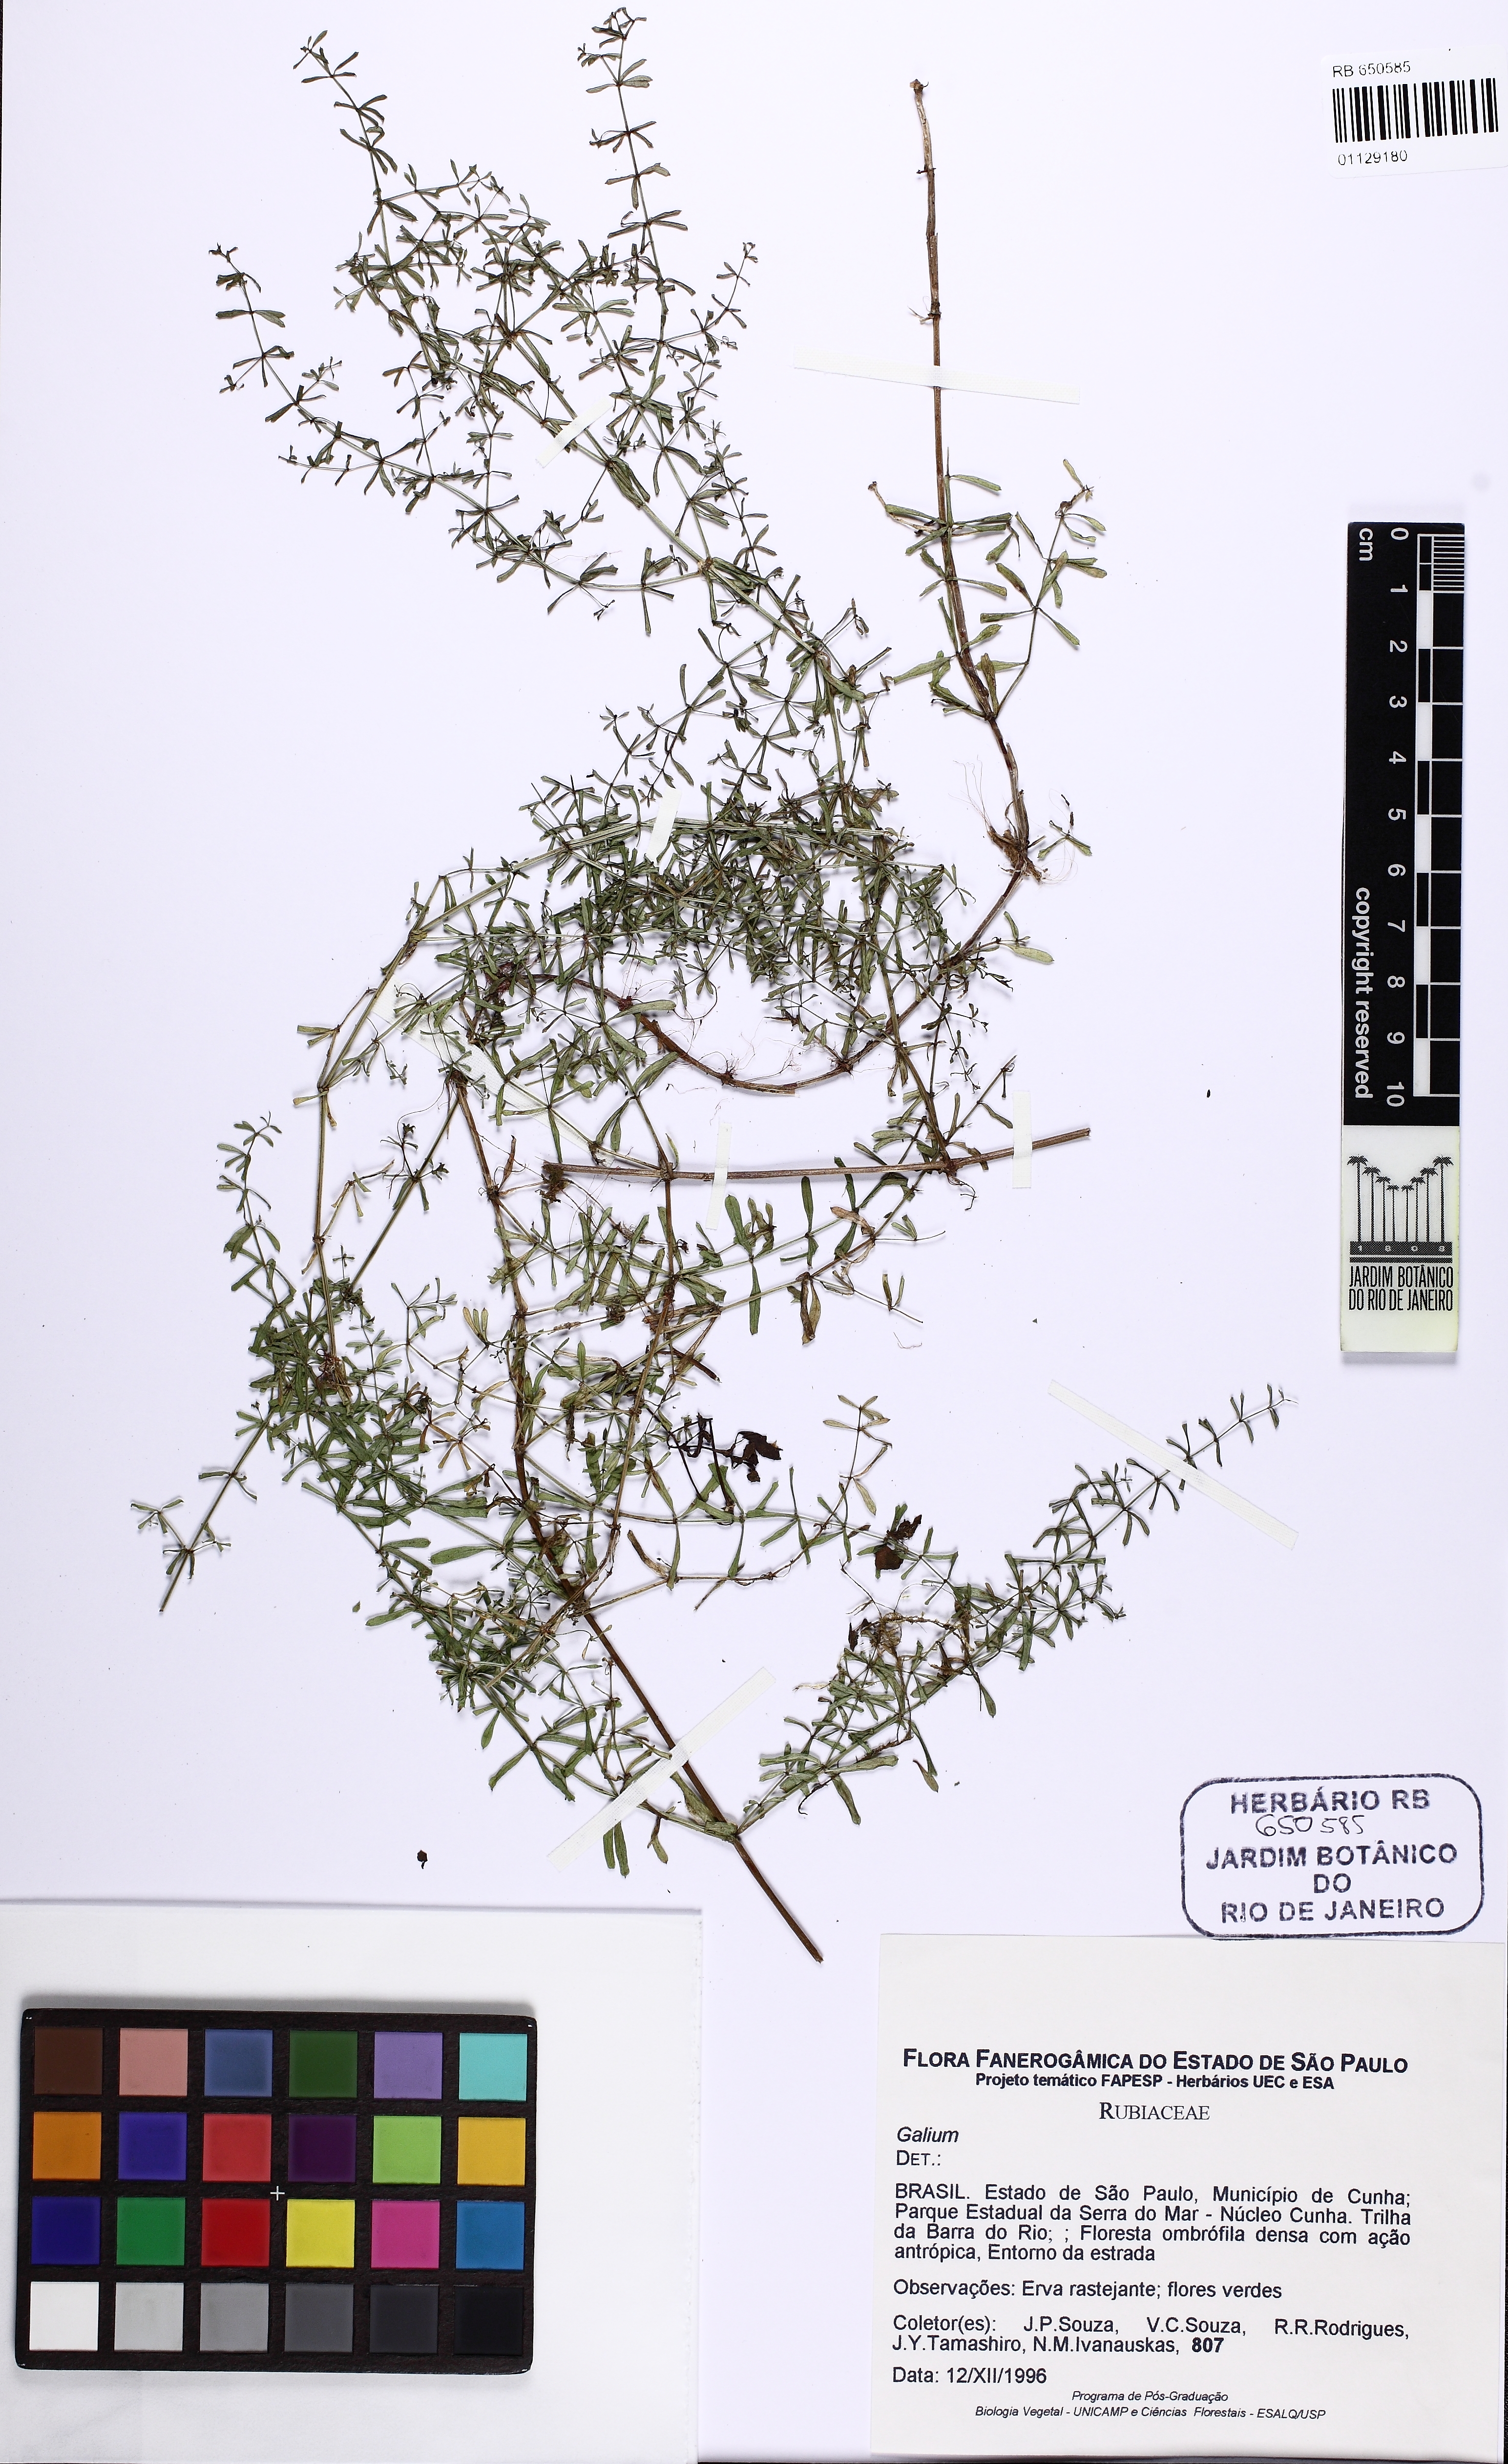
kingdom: Plantae
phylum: Tracheophyta
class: Magnoliopsida
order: Gentianales
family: Rubiaceae
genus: Galium
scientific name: Galium hypocarpium
